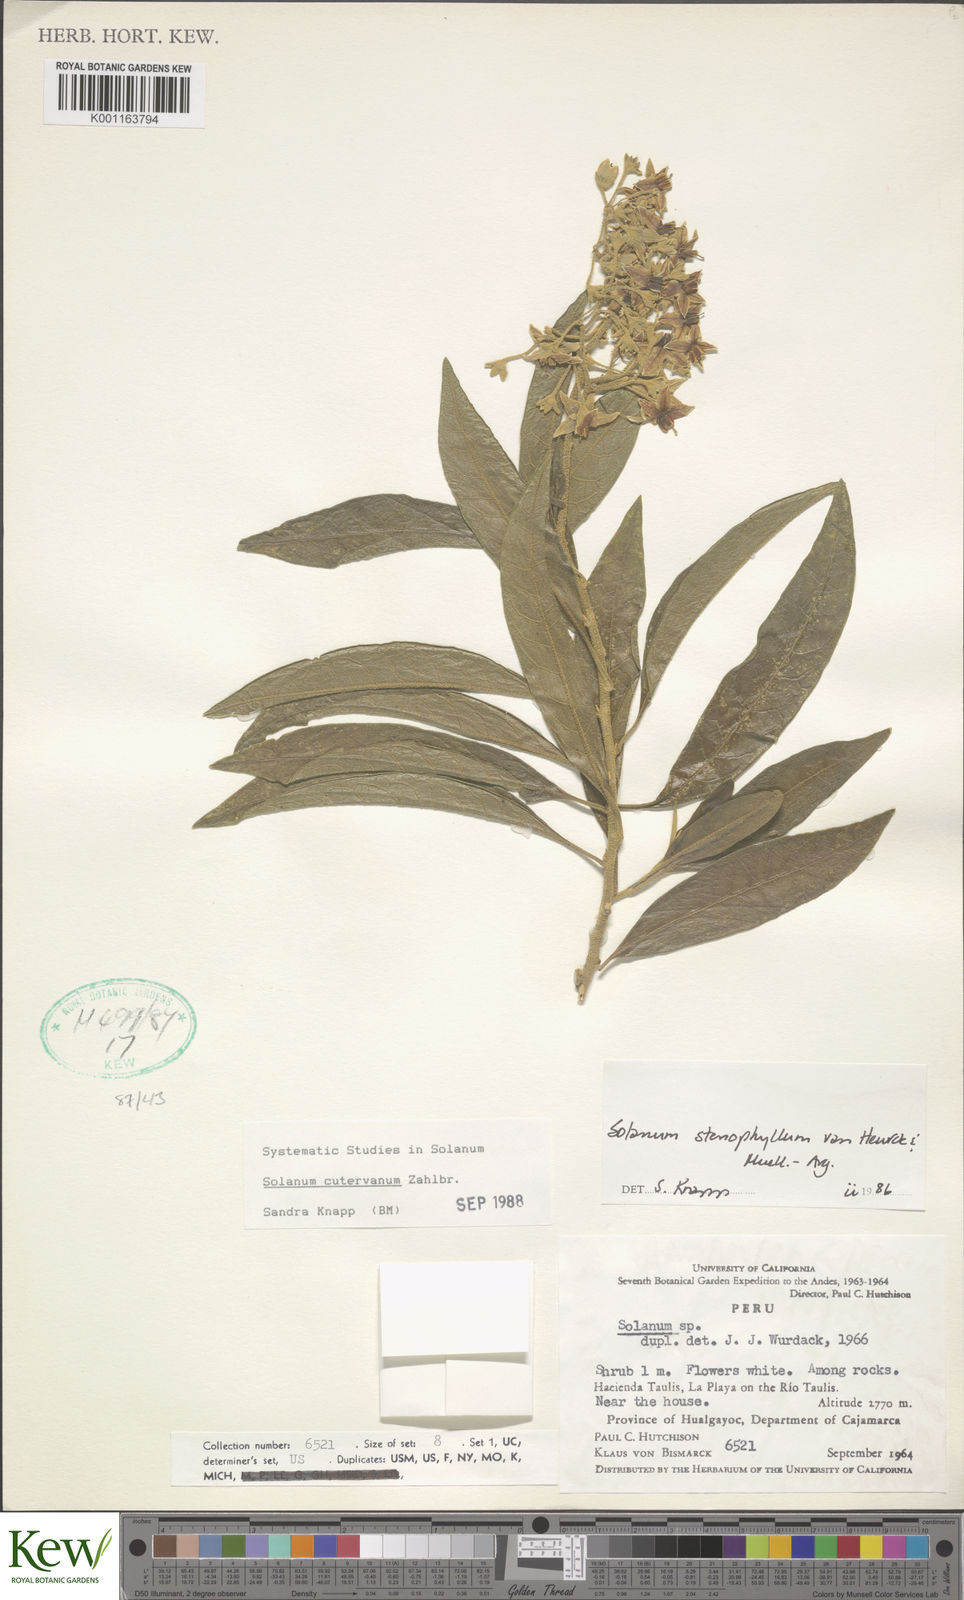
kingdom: Plantae
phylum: Tracheophyta
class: Magnoliopsida
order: Solanales
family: Solanaceae
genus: Solanum
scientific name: Solanum cutervanum
